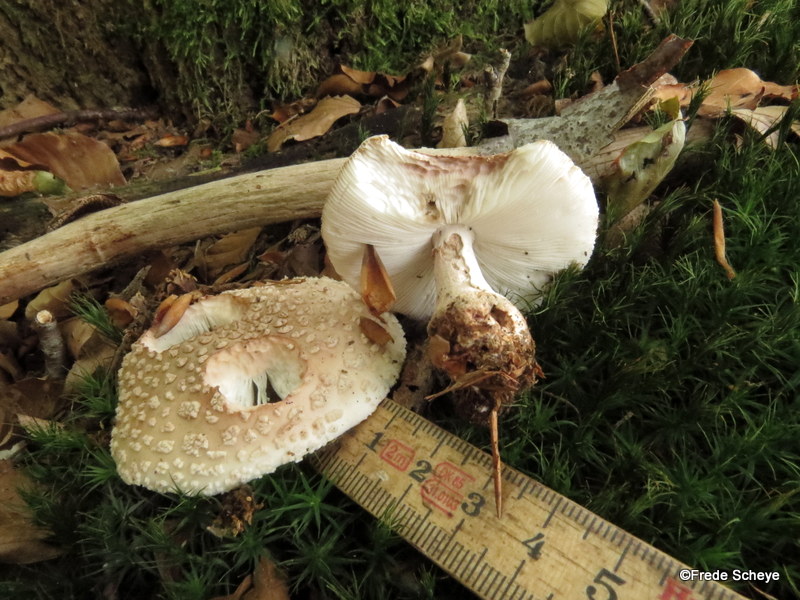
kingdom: Fungi
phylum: Basidiomycota
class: Agaricomycetes
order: Agaricales
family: Amanitaceae
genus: Amanita
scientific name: Amanita rubescens
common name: rødmende fluesvamp
